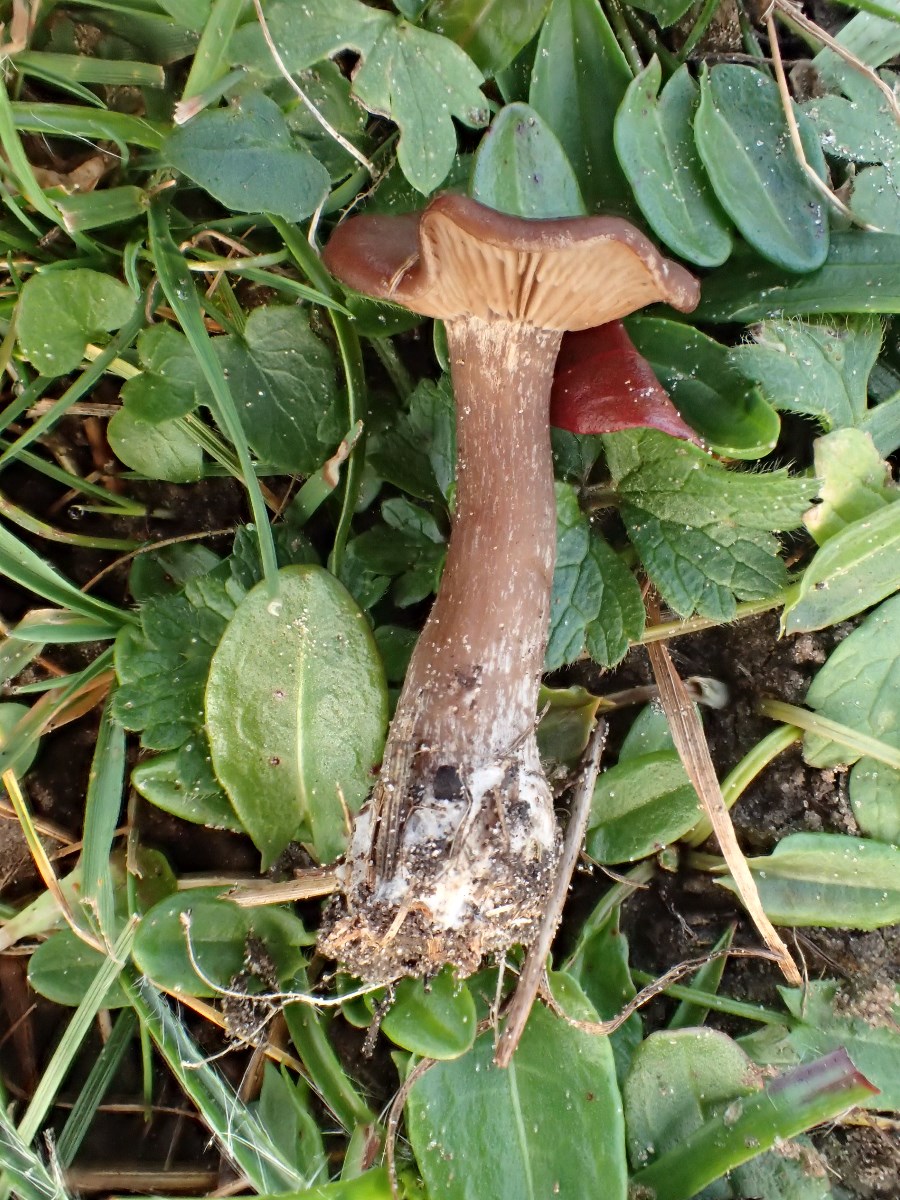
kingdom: Fungi
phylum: Basidiomycota
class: Agaricomycetes
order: Agaricales
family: Pseudoclitocybaceae
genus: Pseudoclitocybe
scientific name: Pseudoclitocybe cyathiformis
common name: almindelig bægertragthat
